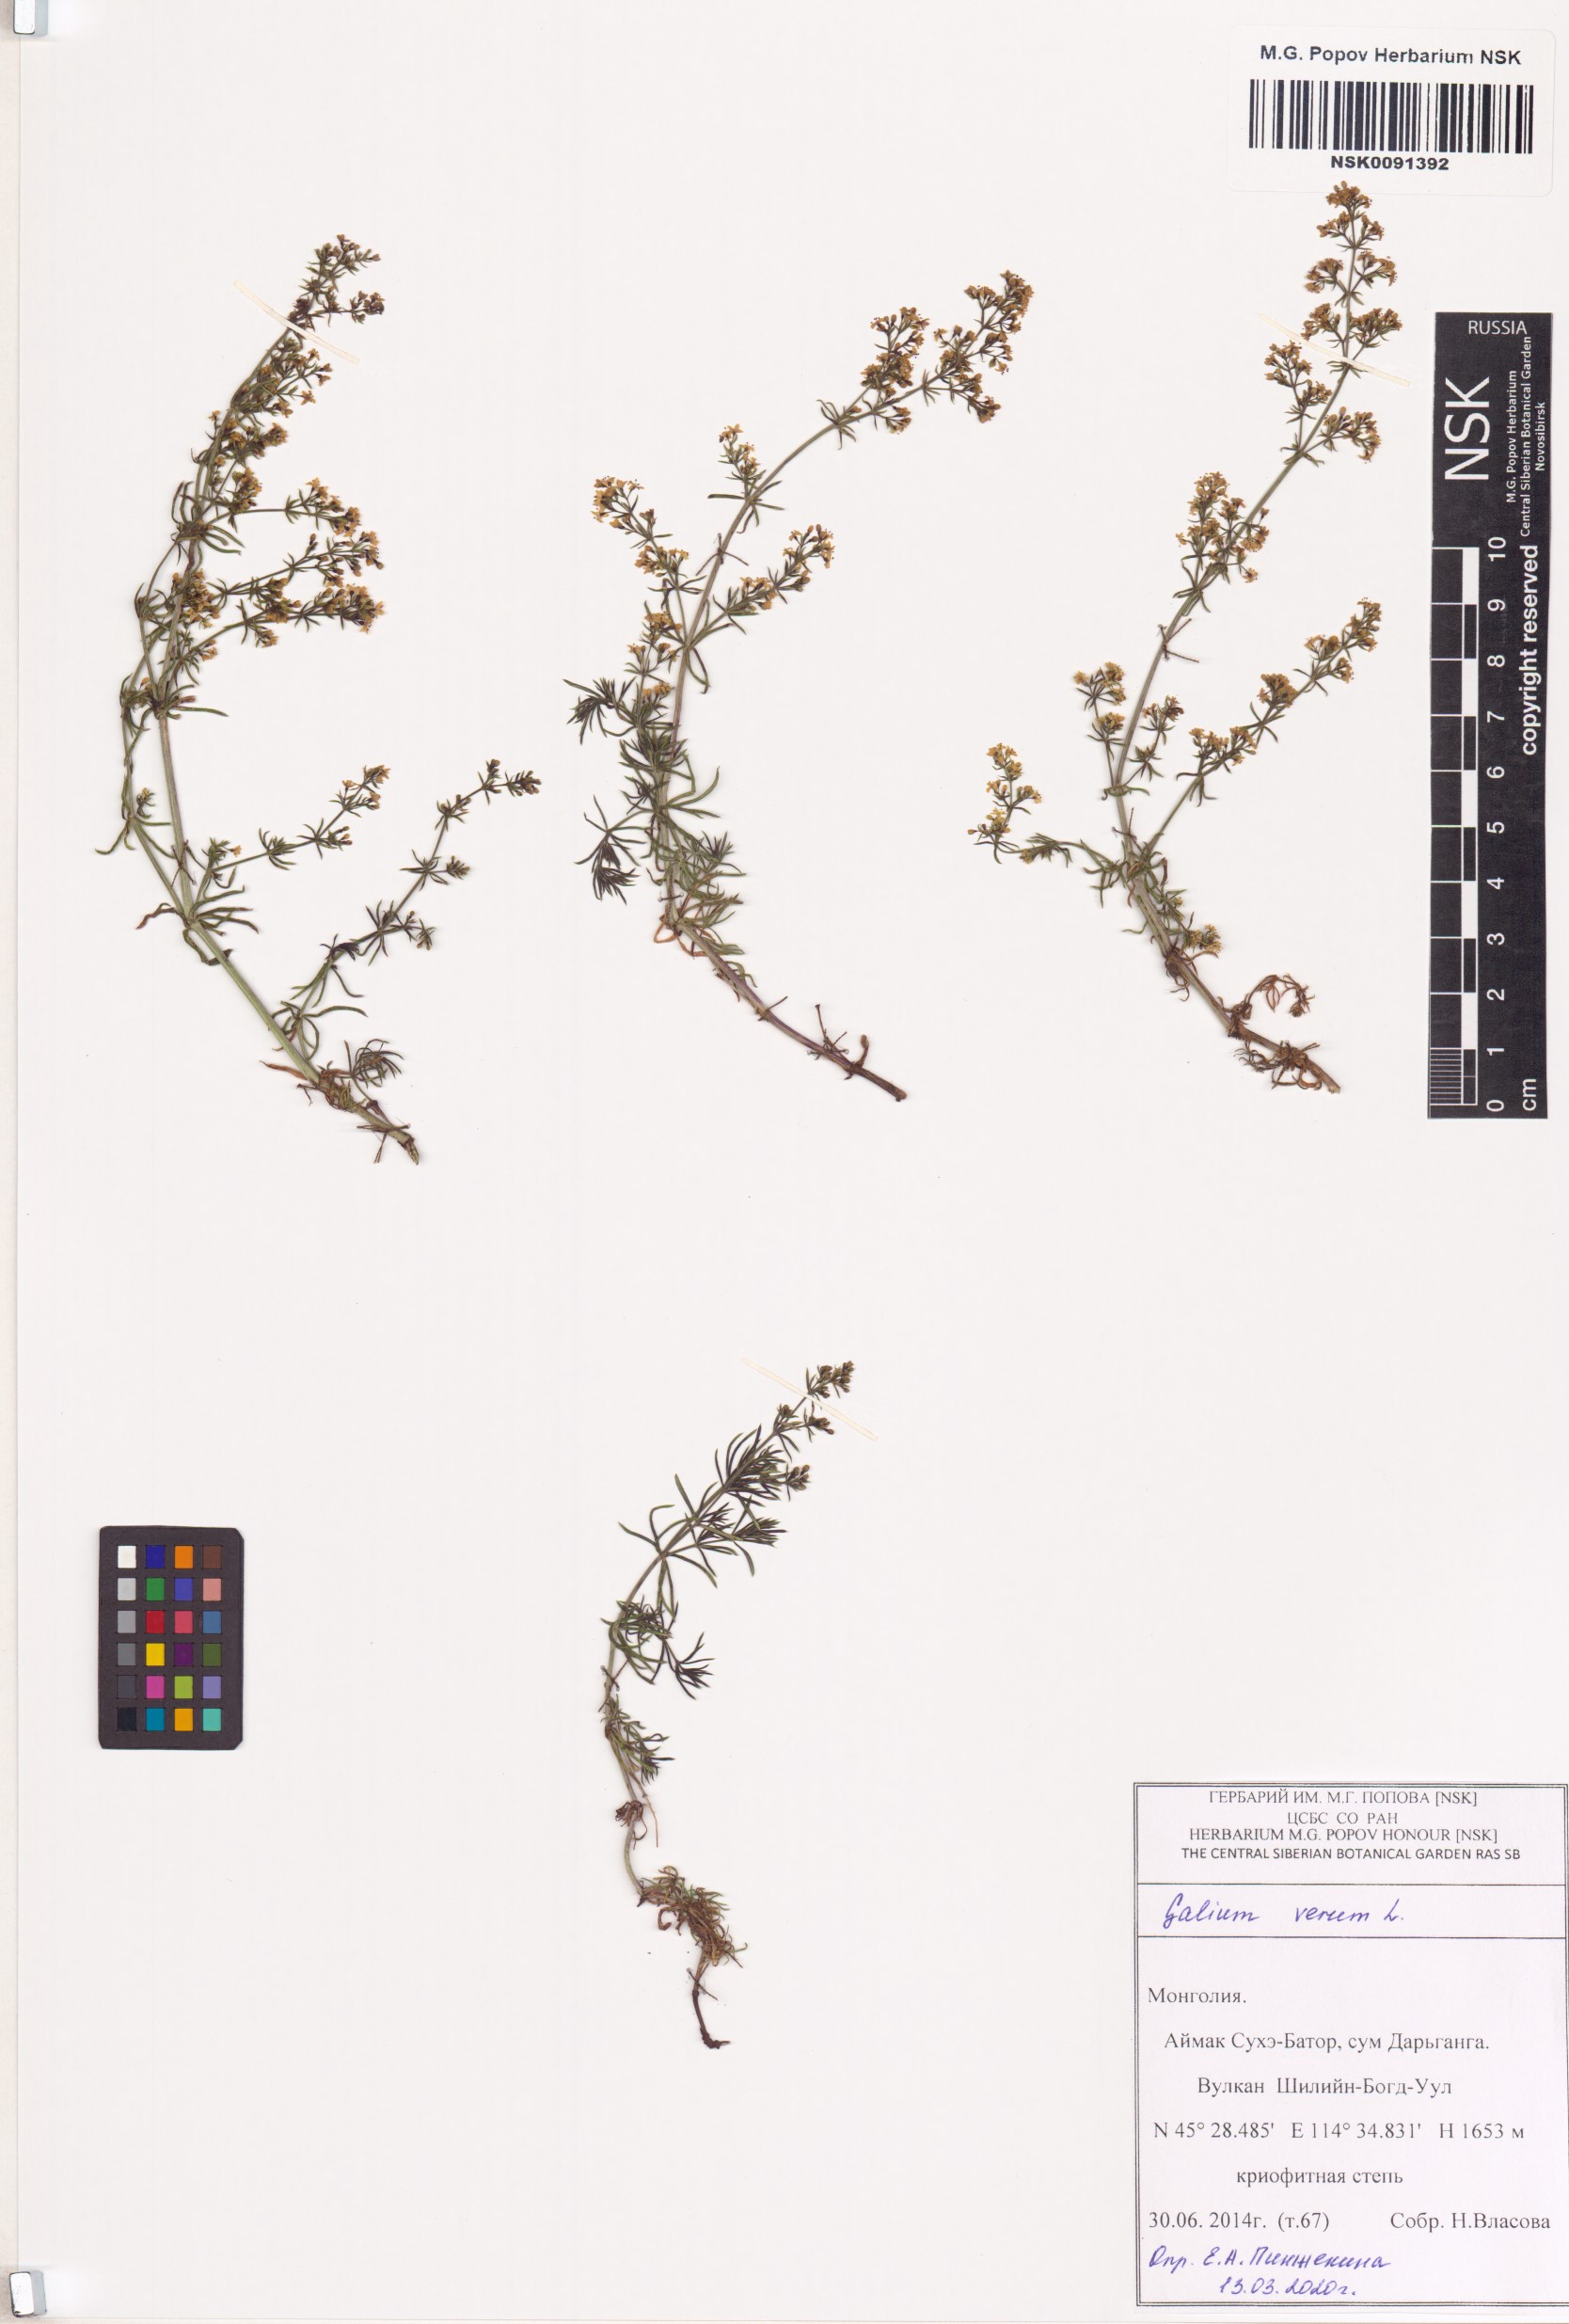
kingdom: Plantae
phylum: Tracheophyta
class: Magnoliopsida
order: Gentianales
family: Rubiaceae
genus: Galium
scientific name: Galium verum
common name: Lady's bedstraw
